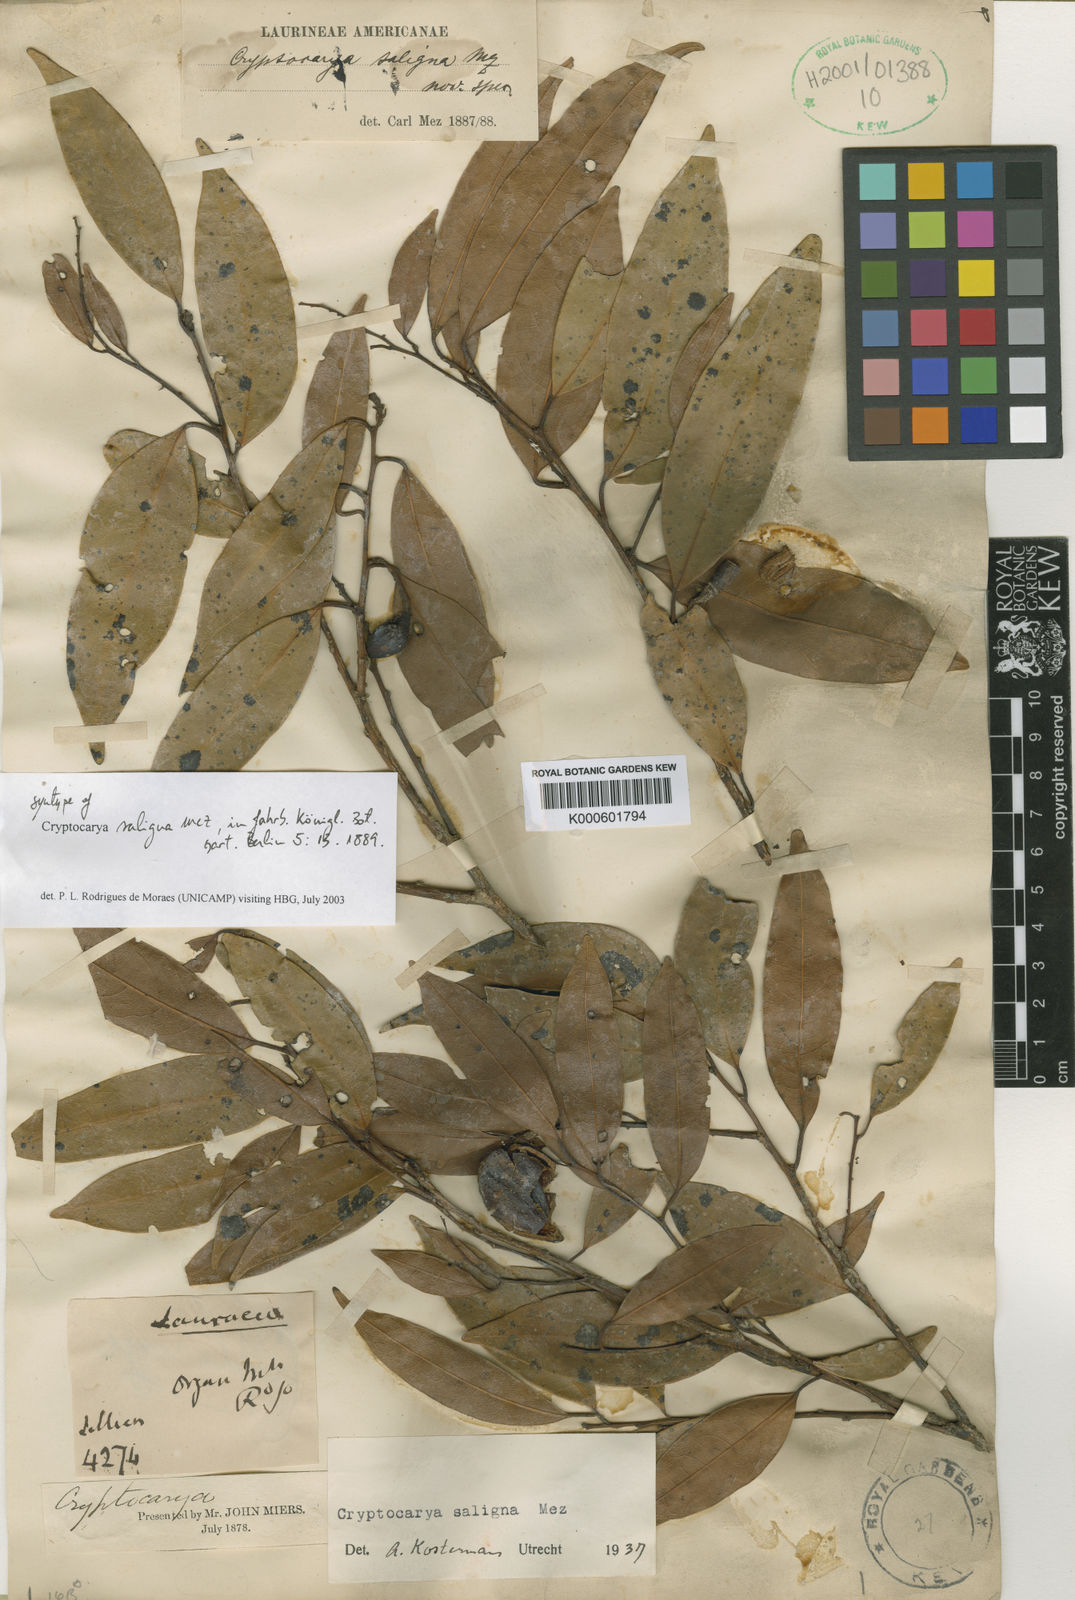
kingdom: Plantae
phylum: Tracheophyta
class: Magnoliopsida
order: Laurales
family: Lauraceae
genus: Cryptocarya
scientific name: Cryptocarya saligna
